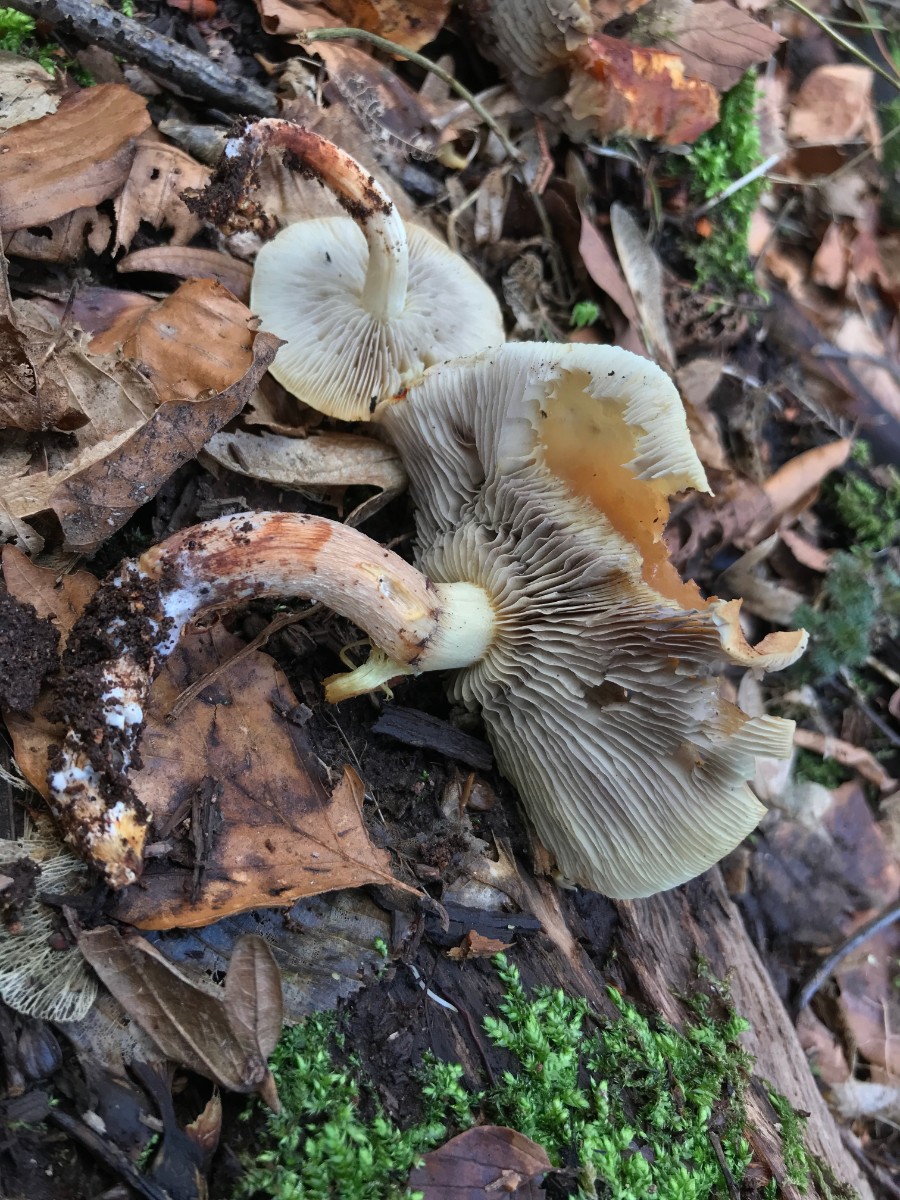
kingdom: Fungi
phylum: Basidiomycota
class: Agaricomycetes
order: Agaricales
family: Strophariaceae
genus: Hypholoma
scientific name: Hypholoma lateritium
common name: teglrød svovlhat
